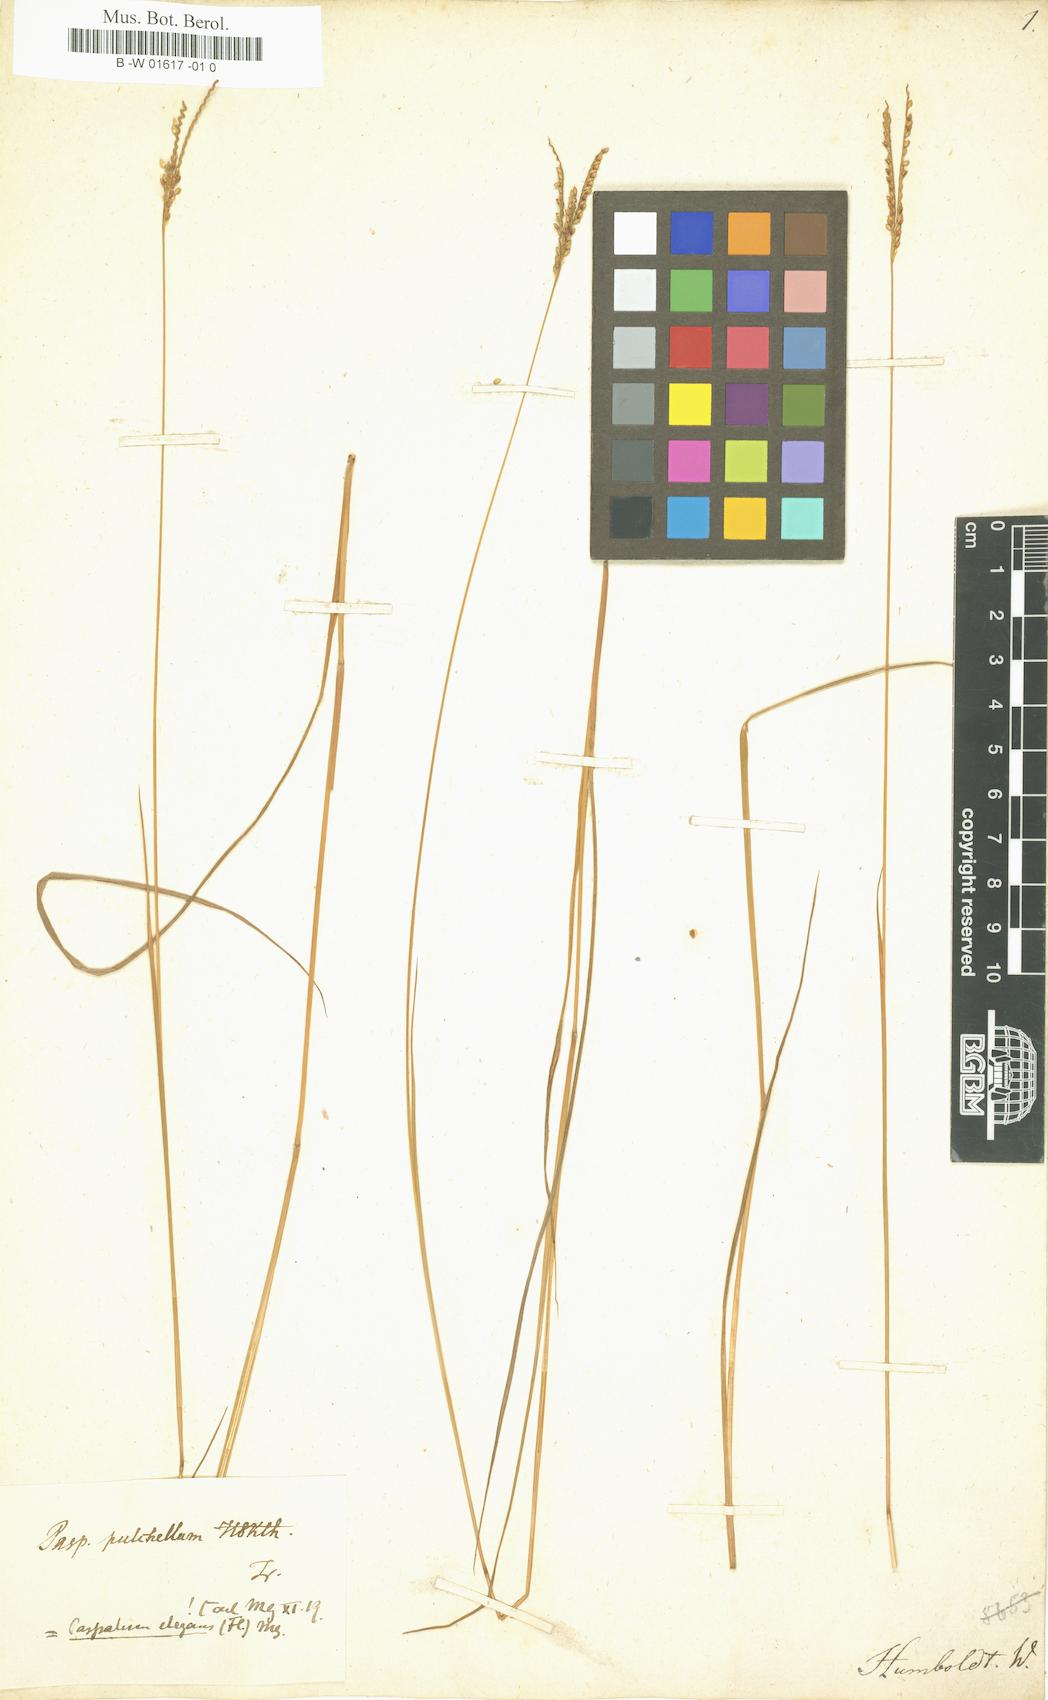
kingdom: Plantae
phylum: Tracheophyta
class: Liliopsida
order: Poales
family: Poaceae
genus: Paspalum
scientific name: Paspalum pulchellum
